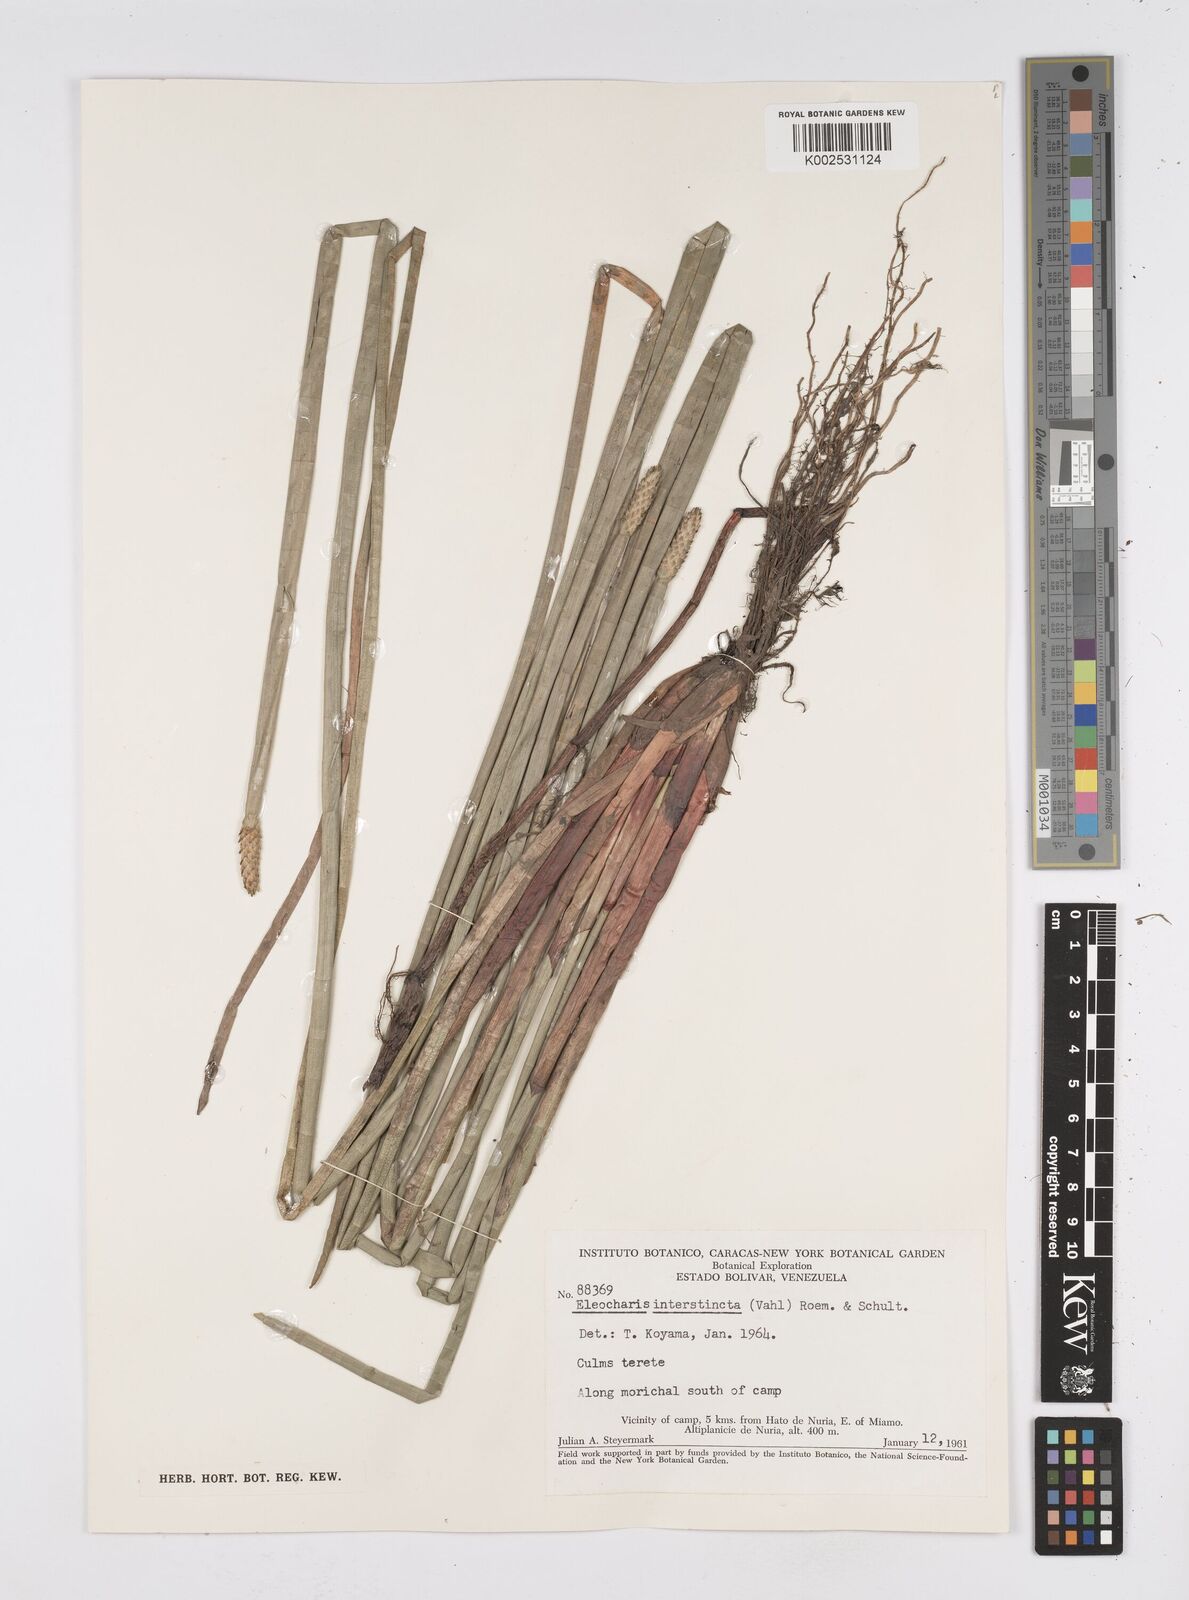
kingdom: Plantae
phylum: Tracheophyta
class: Liliopsida
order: Poales
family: Cyperaceae
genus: Eleocharis
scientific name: Eleocharis interstincta
